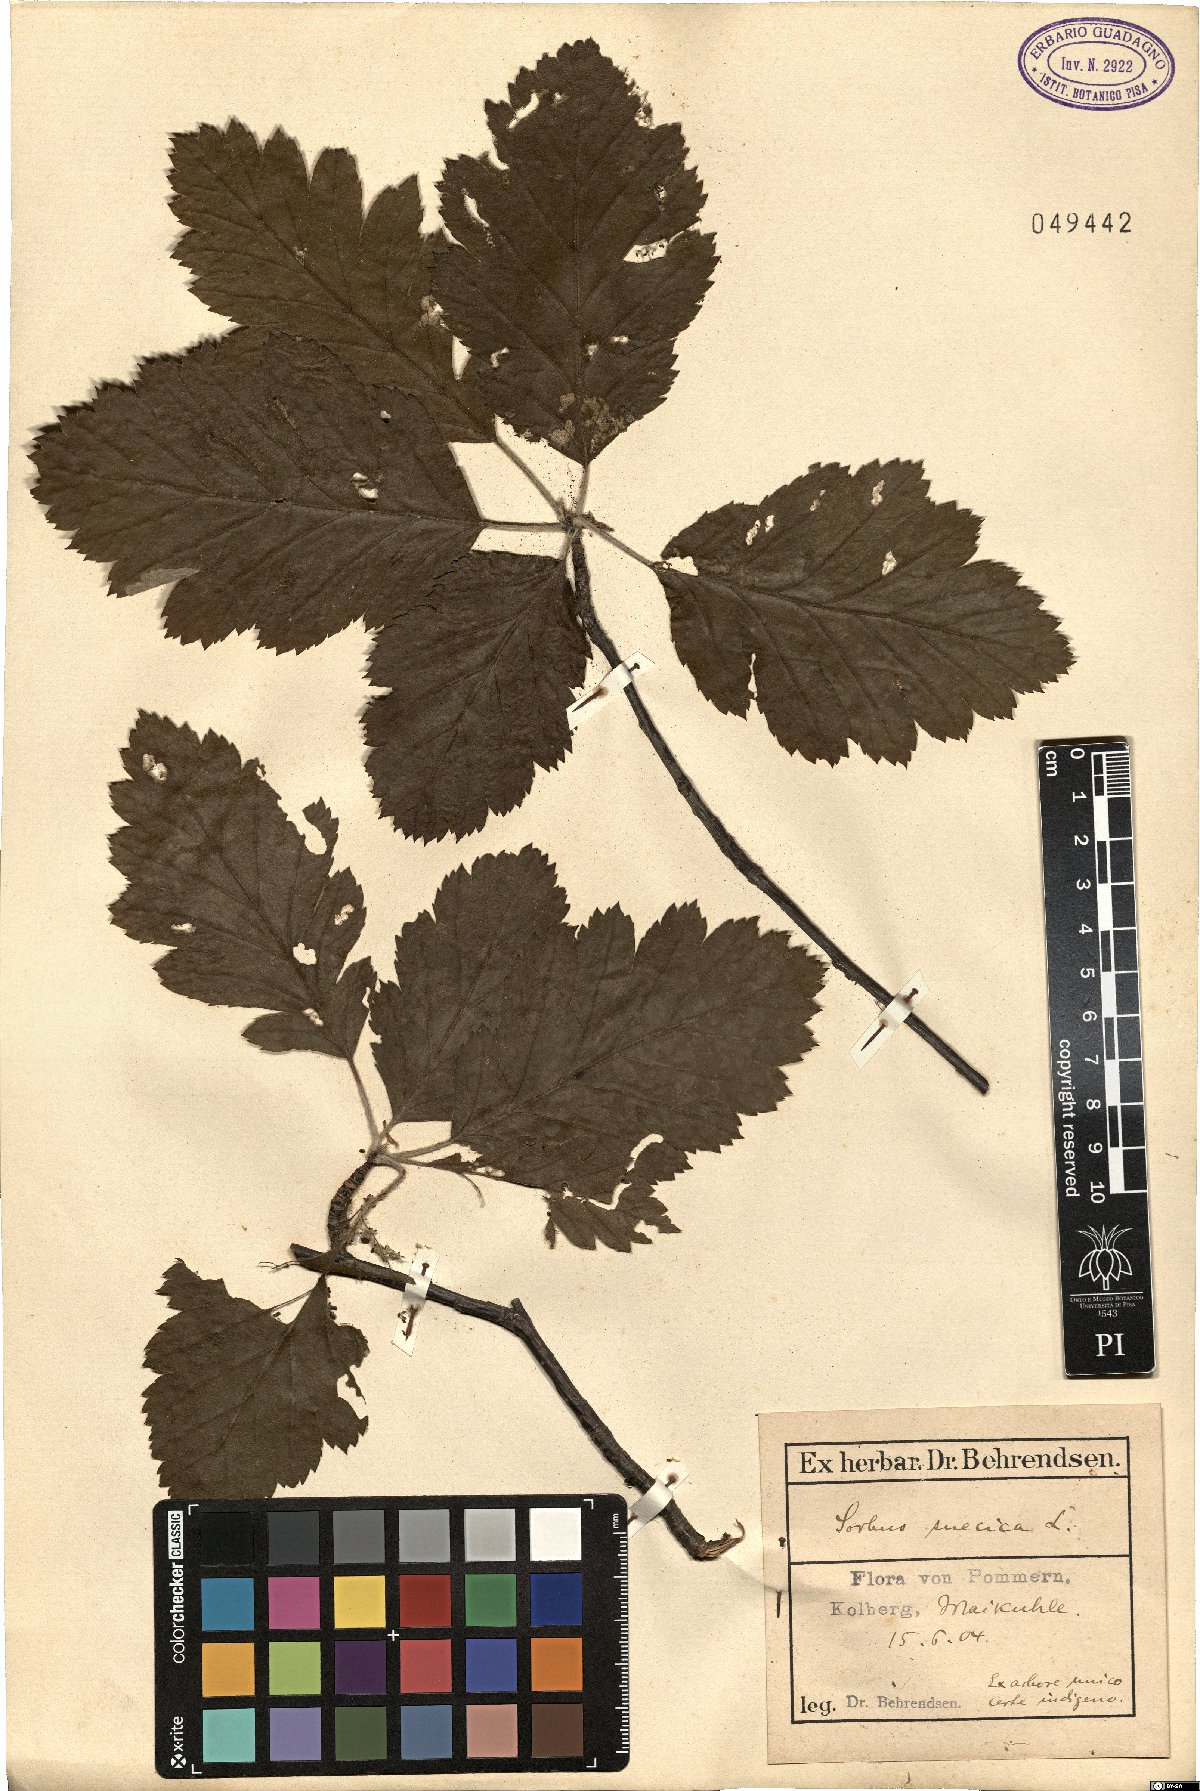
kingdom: Plantae
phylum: Tracheophyta
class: Magnoliopsida
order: Rosales
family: Rosaceae
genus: Scandosorbus
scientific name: Scandosorbus intermedia
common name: Swedish whitebeam
